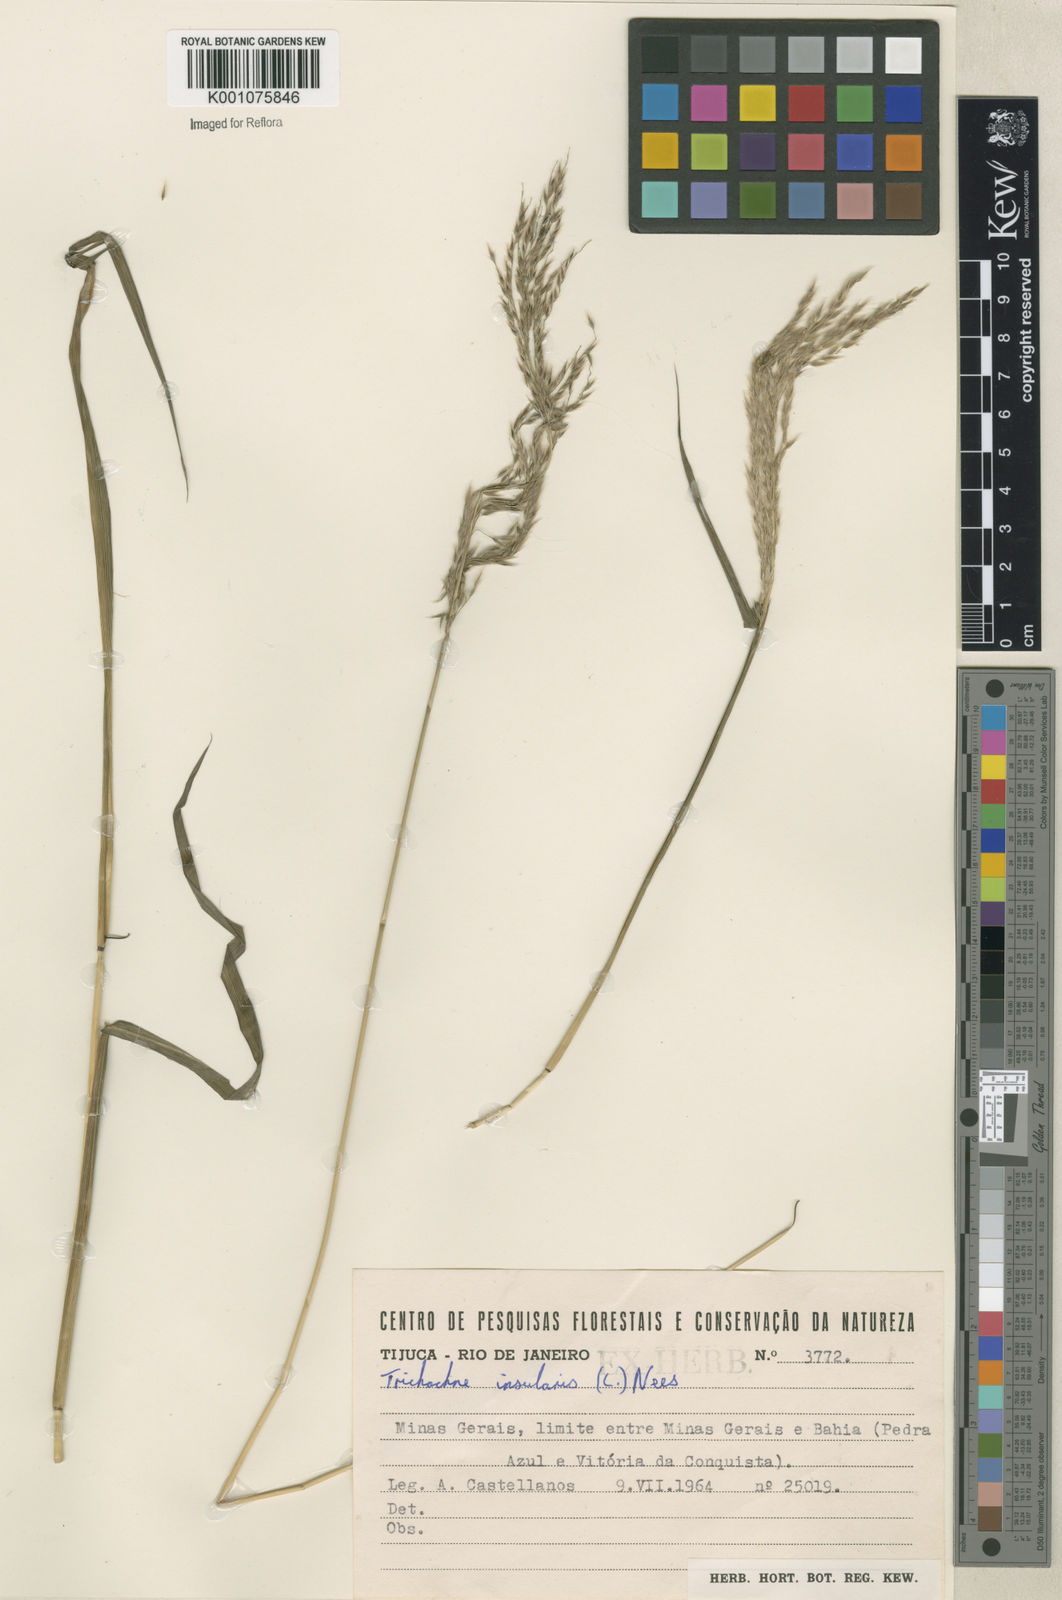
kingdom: Plantae
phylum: Tracheophyta
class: Liliopsida
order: Poales
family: Poaceae
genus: Digitaria
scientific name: Digitaria
